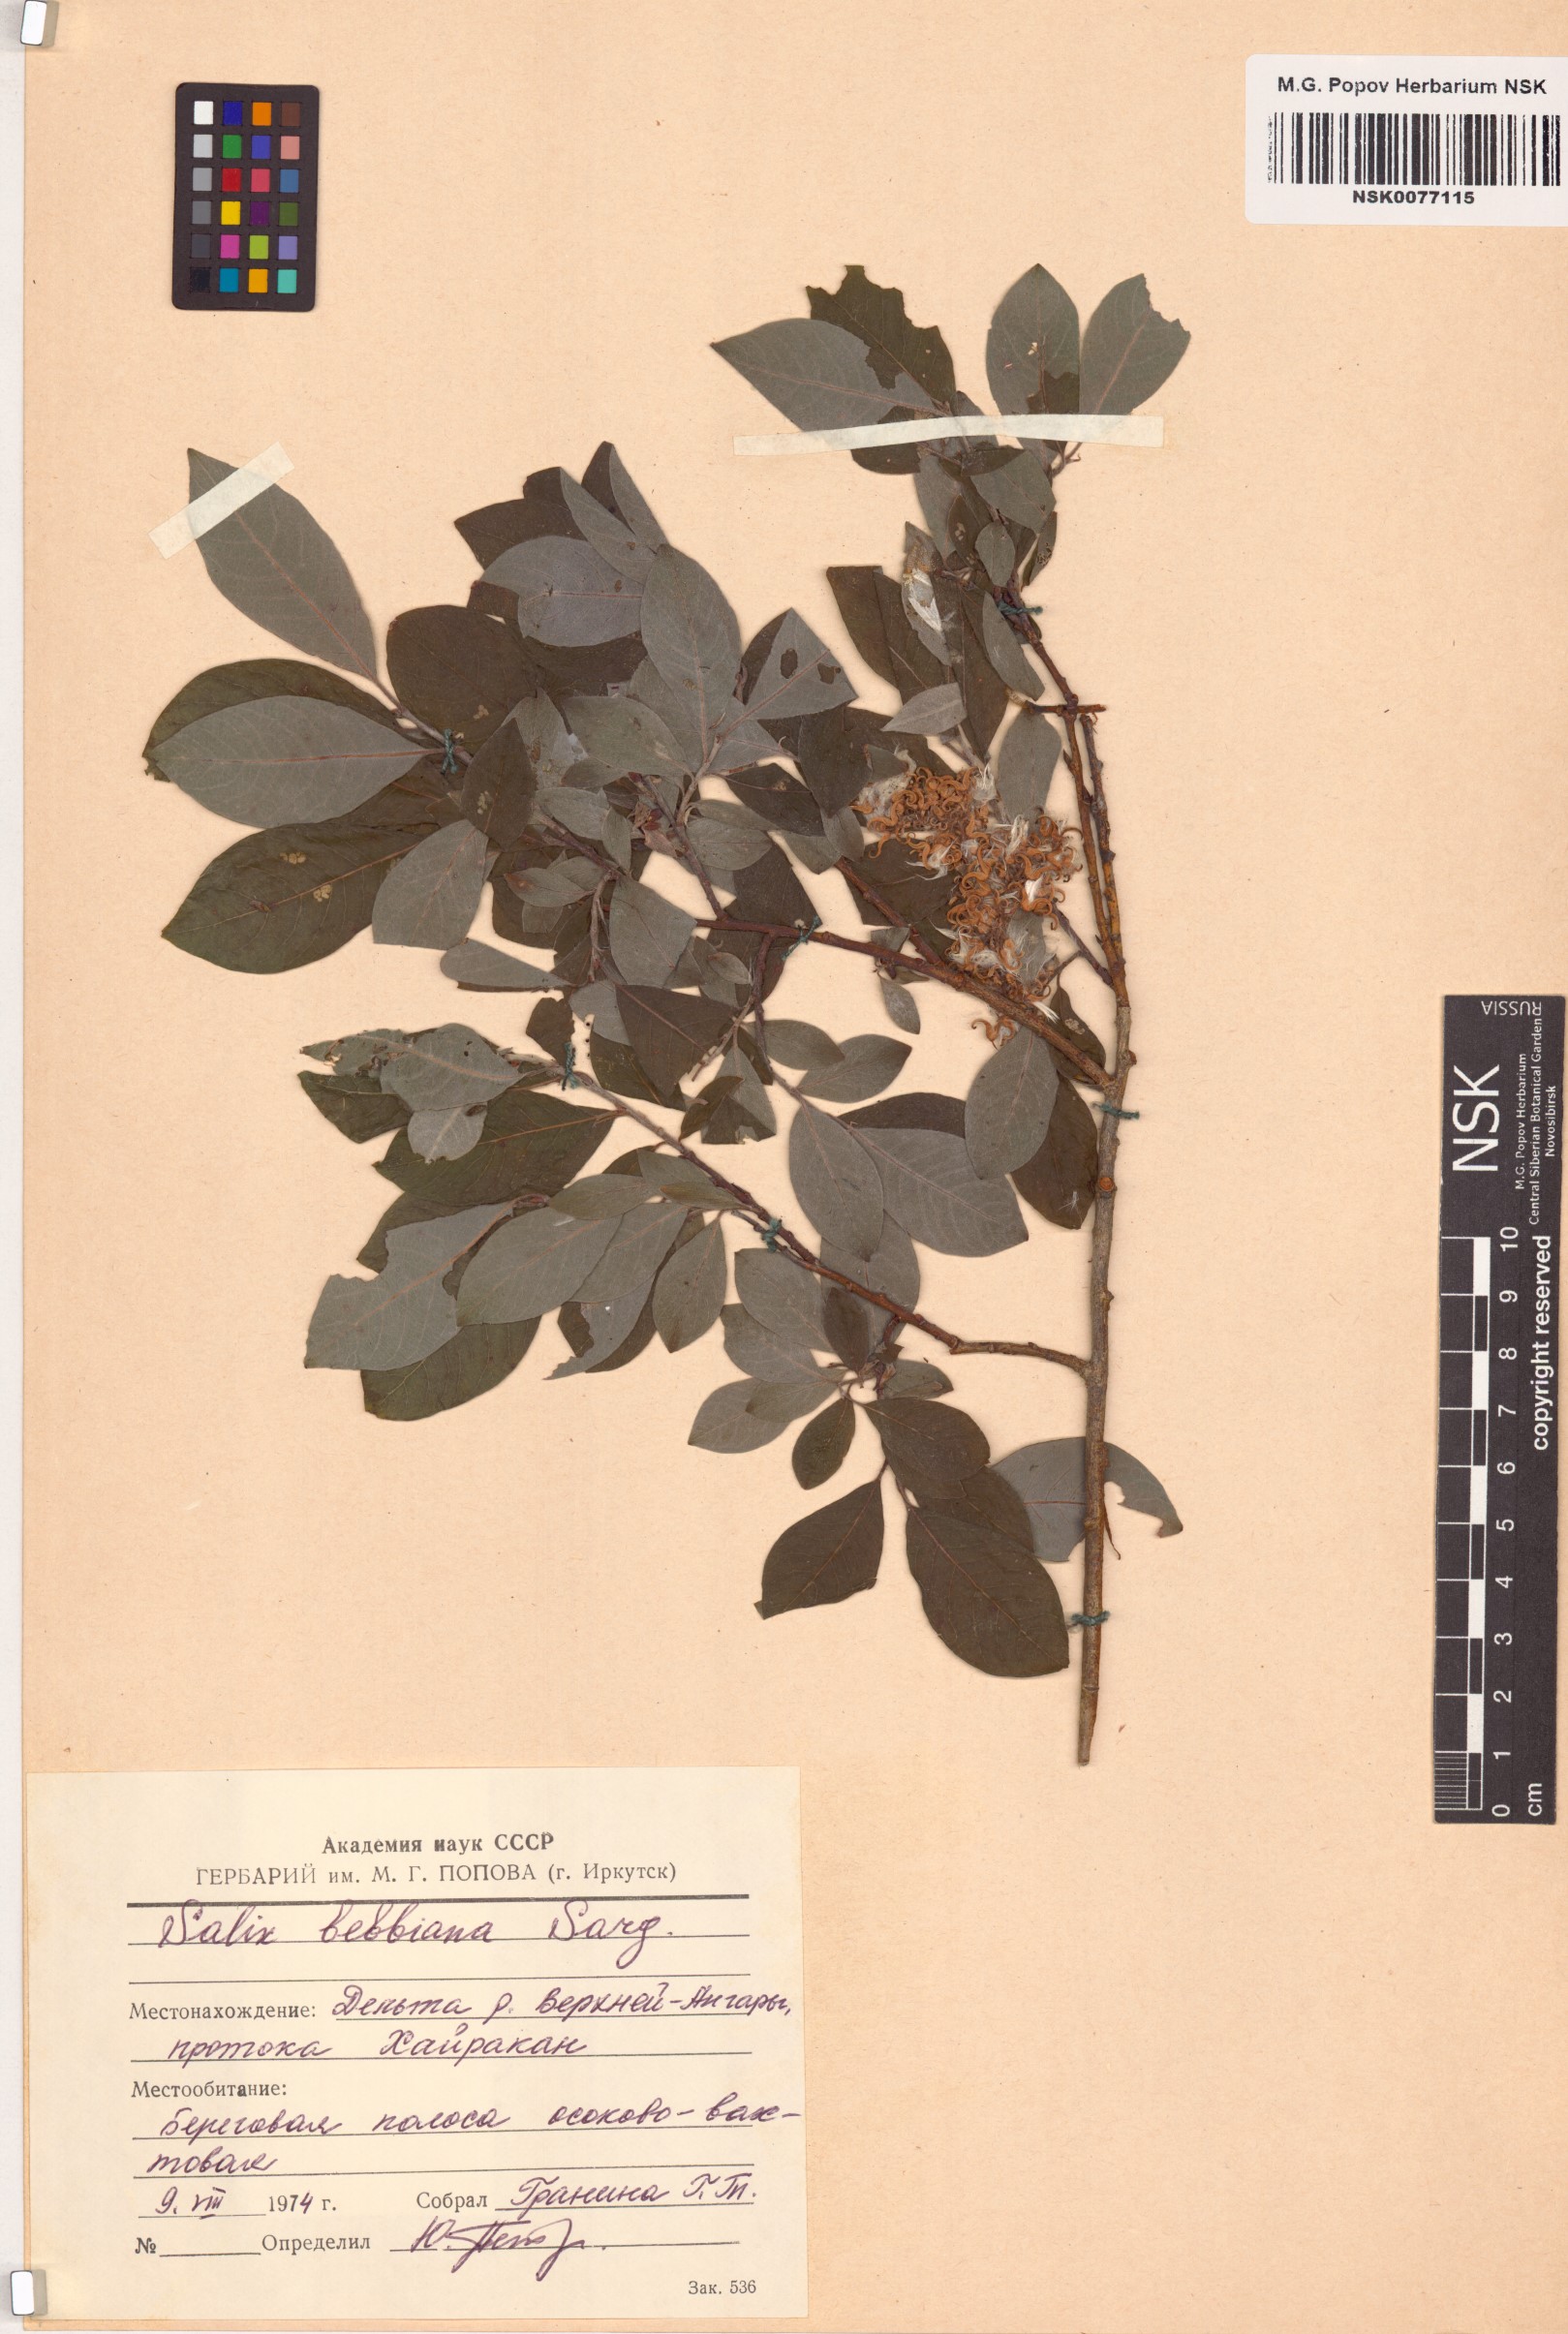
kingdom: Plantae
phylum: Tracheophyta
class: Magnoliopsida
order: Malpighiales
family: Salicaceae
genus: Salix
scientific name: Salix bebbiana
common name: Bebb's willow
